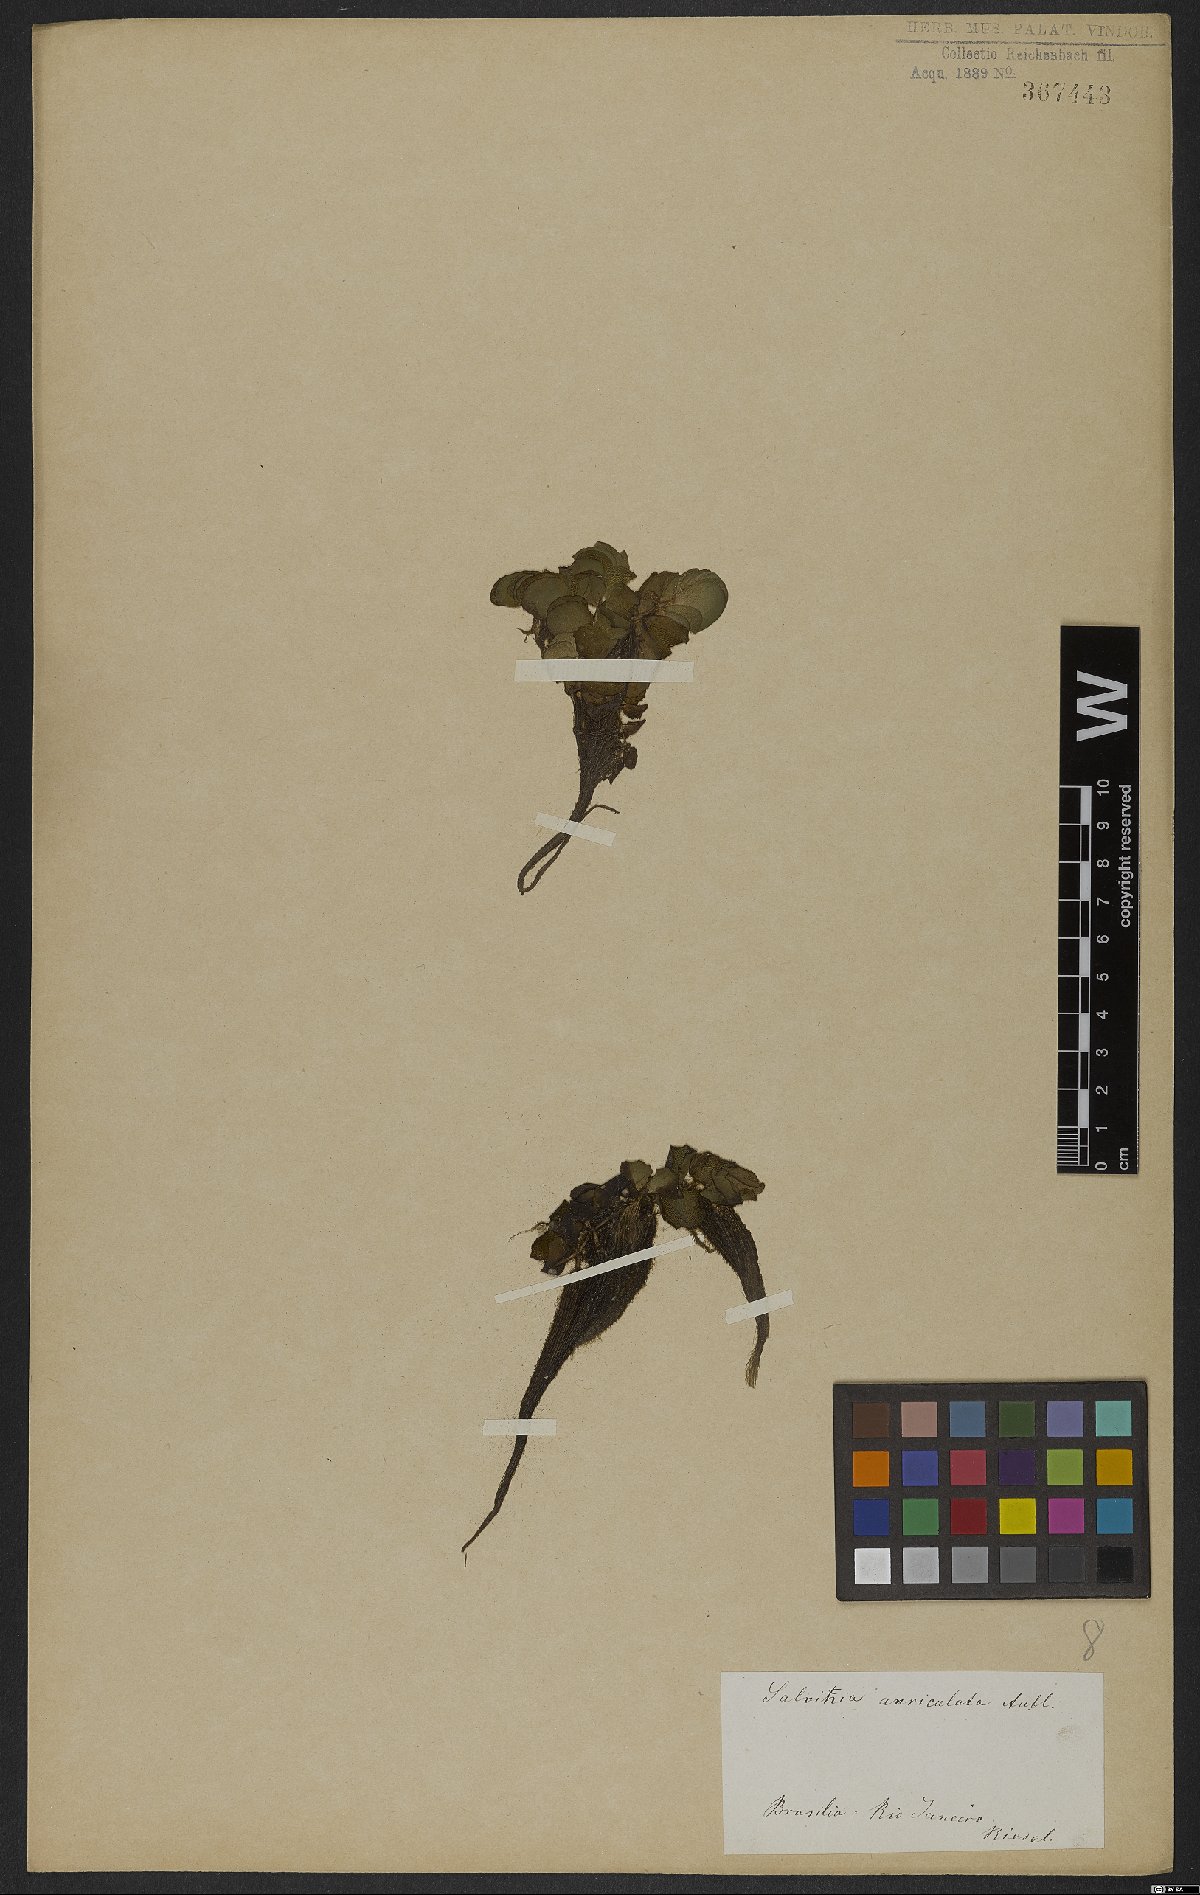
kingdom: Plantae
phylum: Tracheophyta
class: Polypodiopsida
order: Salviniales
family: Salviniaceae
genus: Salvinia
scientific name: Salvinia auriculata
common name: African payal
